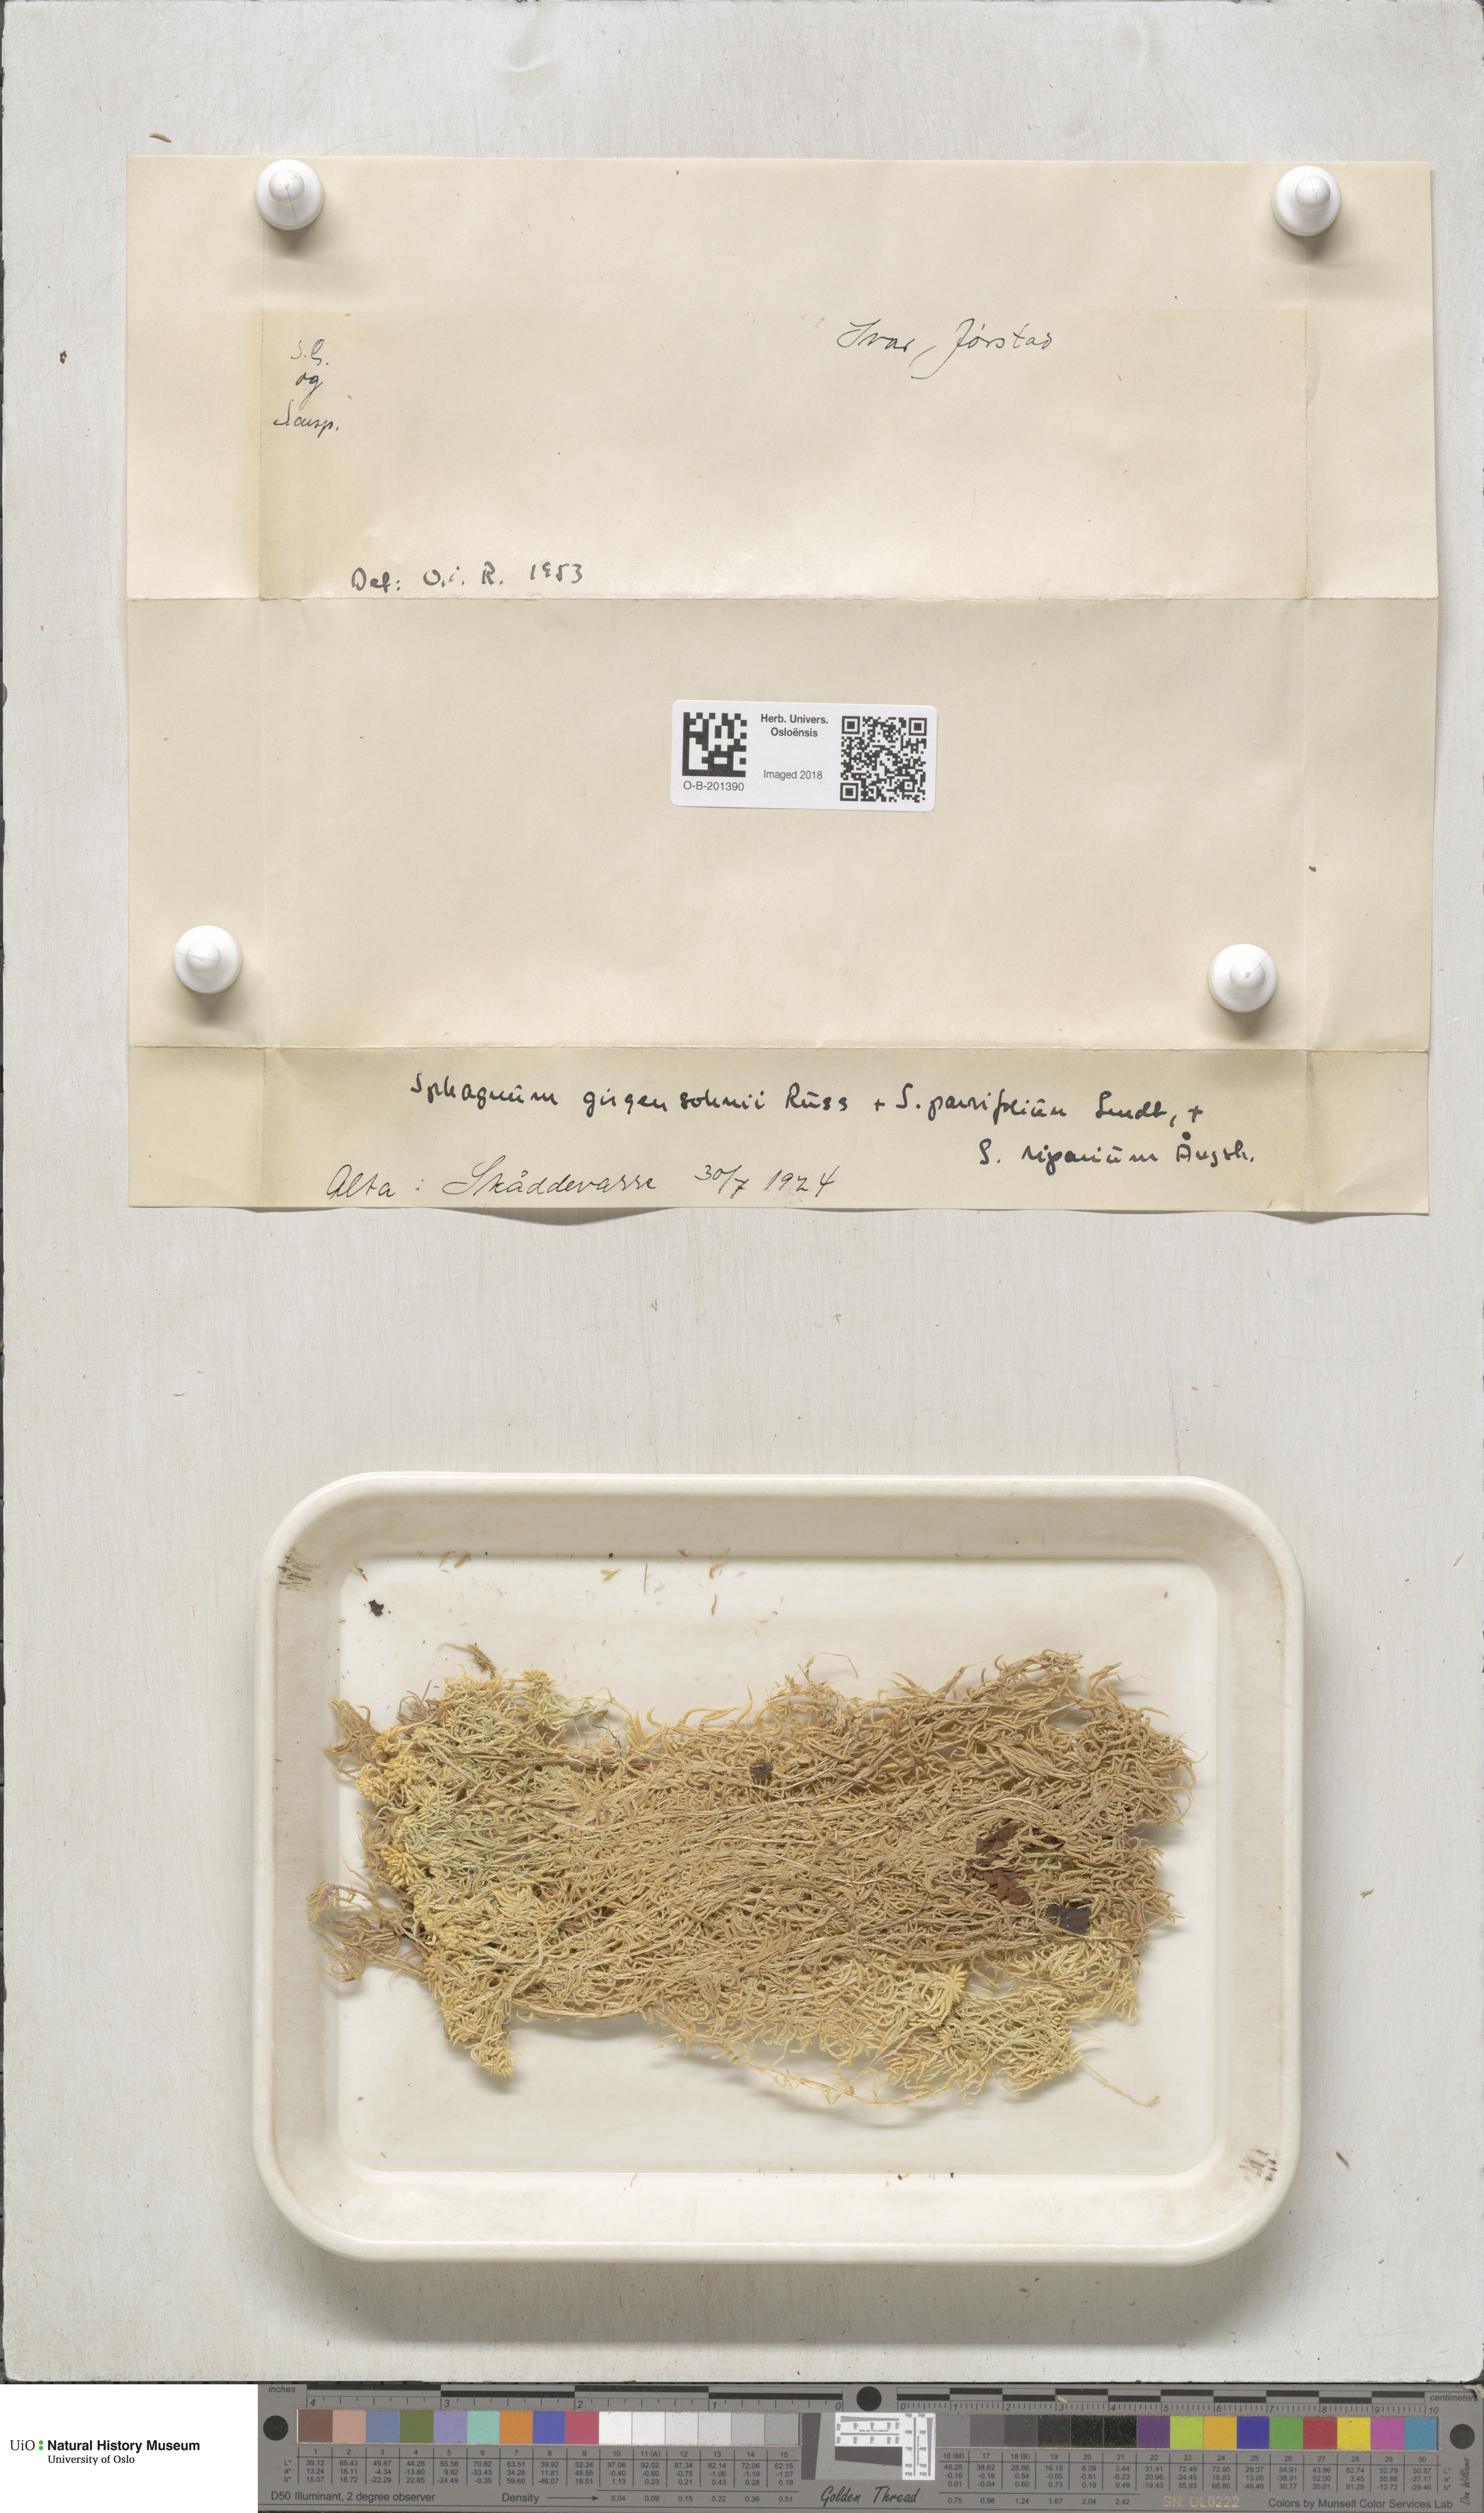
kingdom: Plantae
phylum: Bryophyta
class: Sphagnopsida
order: Sphagnales
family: Sphagnaceae
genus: Sphagnum
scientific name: Sphagnum girgensohnii
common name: Girgensohn's peat moss
